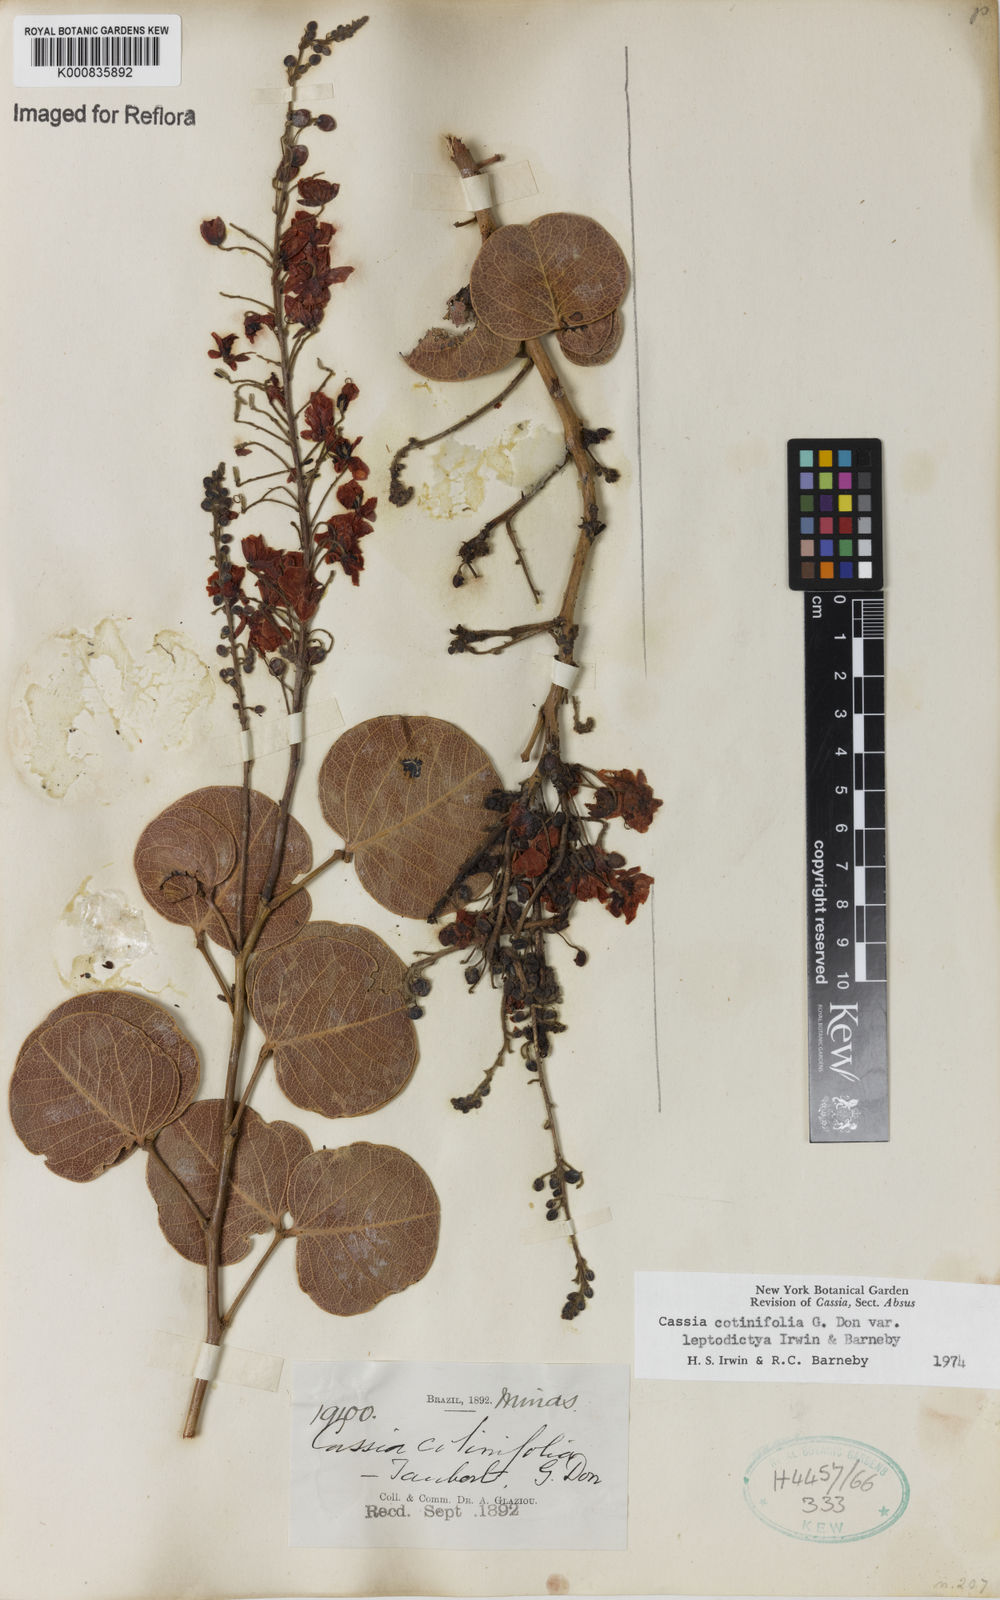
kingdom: Plantae
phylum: Tracheophyta
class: Magnoliopsida
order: Fabales
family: Fabaceae
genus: Chamaecrista
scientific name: Chamaecrista cotinifolia
